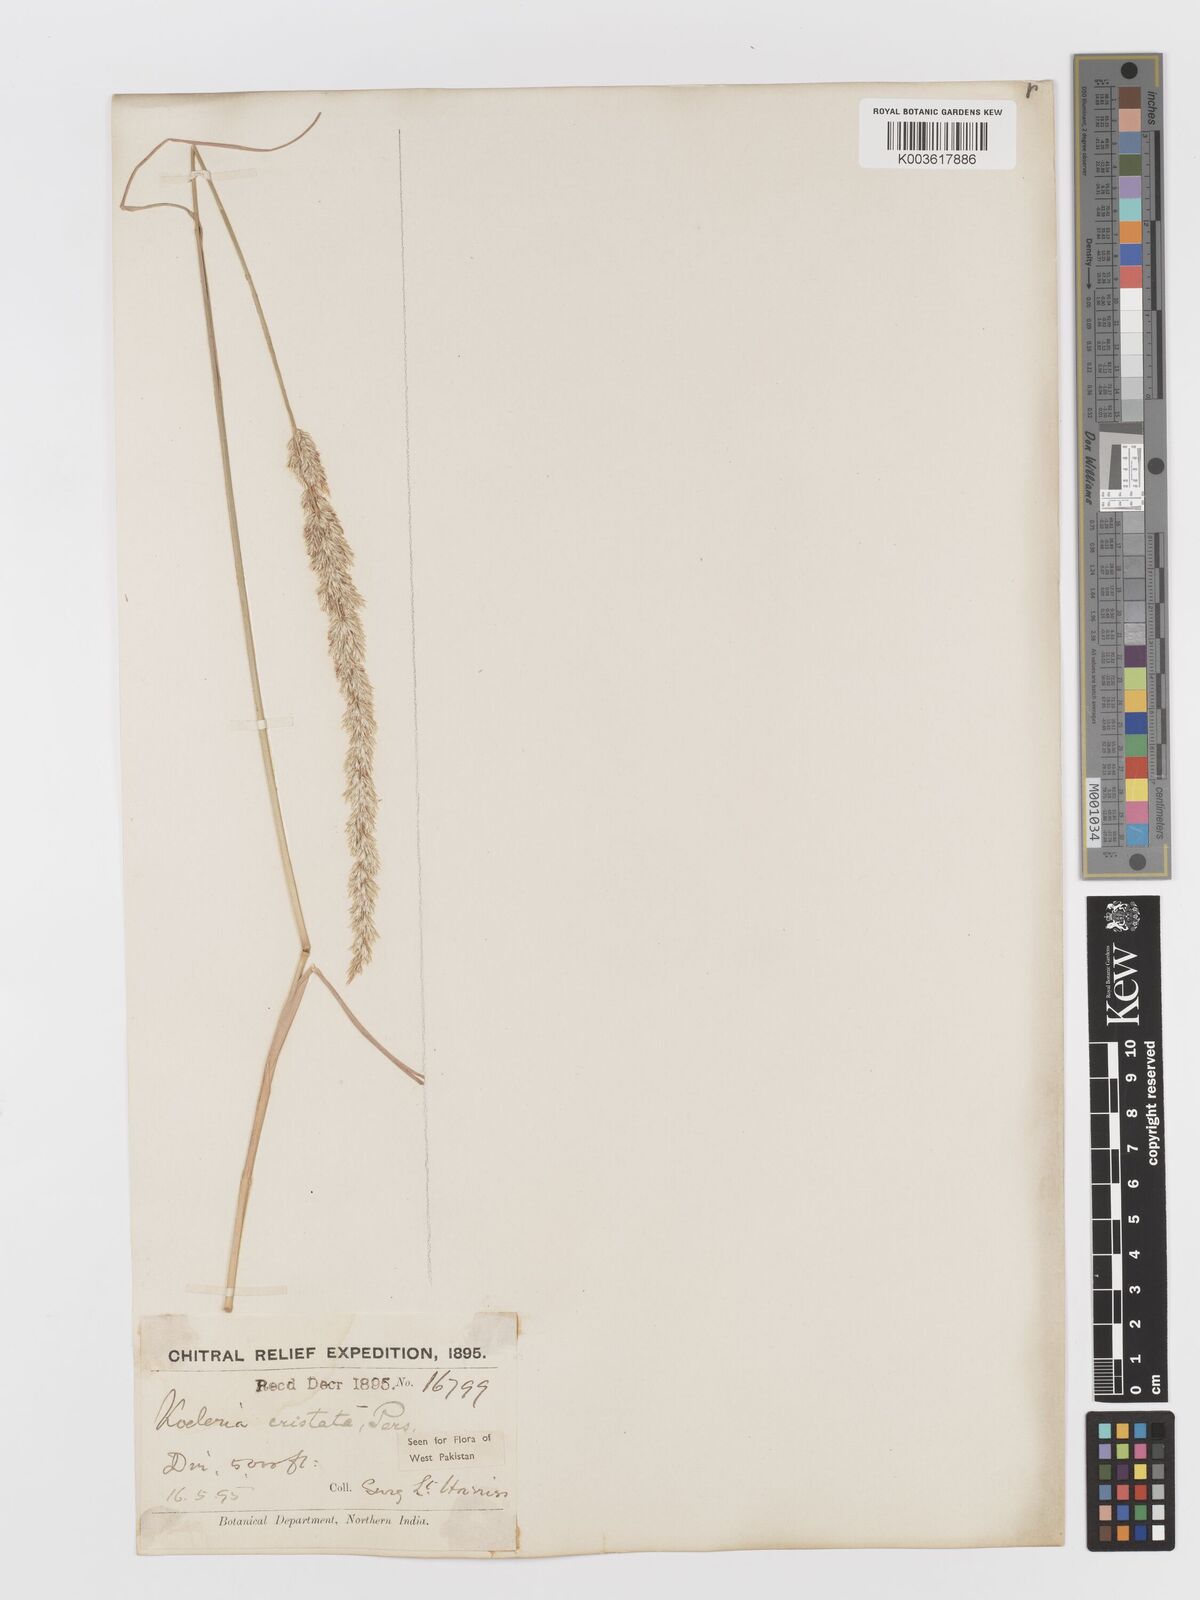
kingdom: Plantae
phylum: Tracheophyta
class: Liliopsida
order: Poales
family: Poaceae
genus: Koeleria
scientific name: Koeleria
